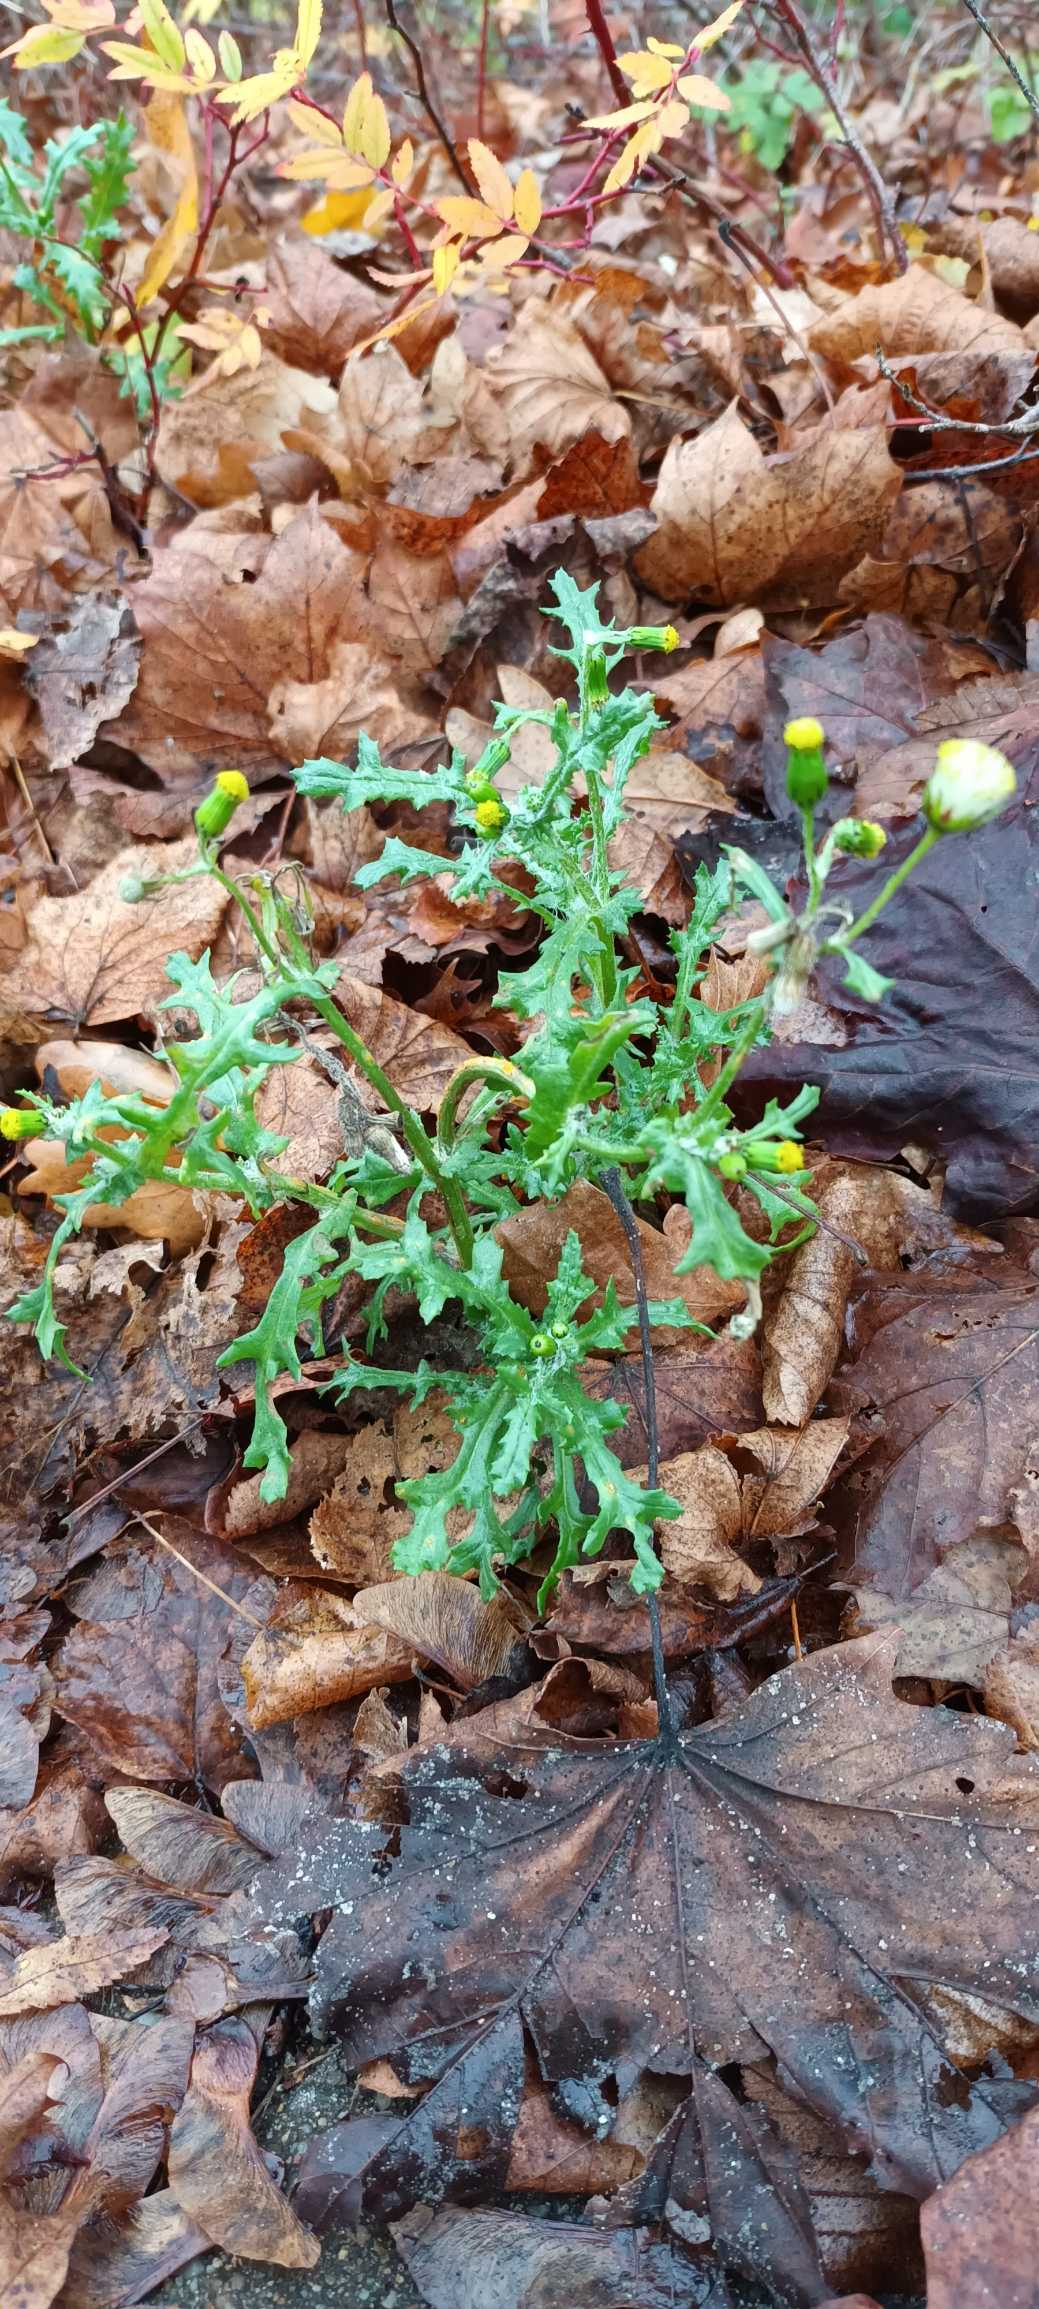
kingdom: Plantae
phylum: Tracheophyta
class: Magnoliopsida
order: Asterales
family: Asteraceae
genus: Senecio
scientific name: Senecio vulgaris
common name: Almindelig brandbæger
